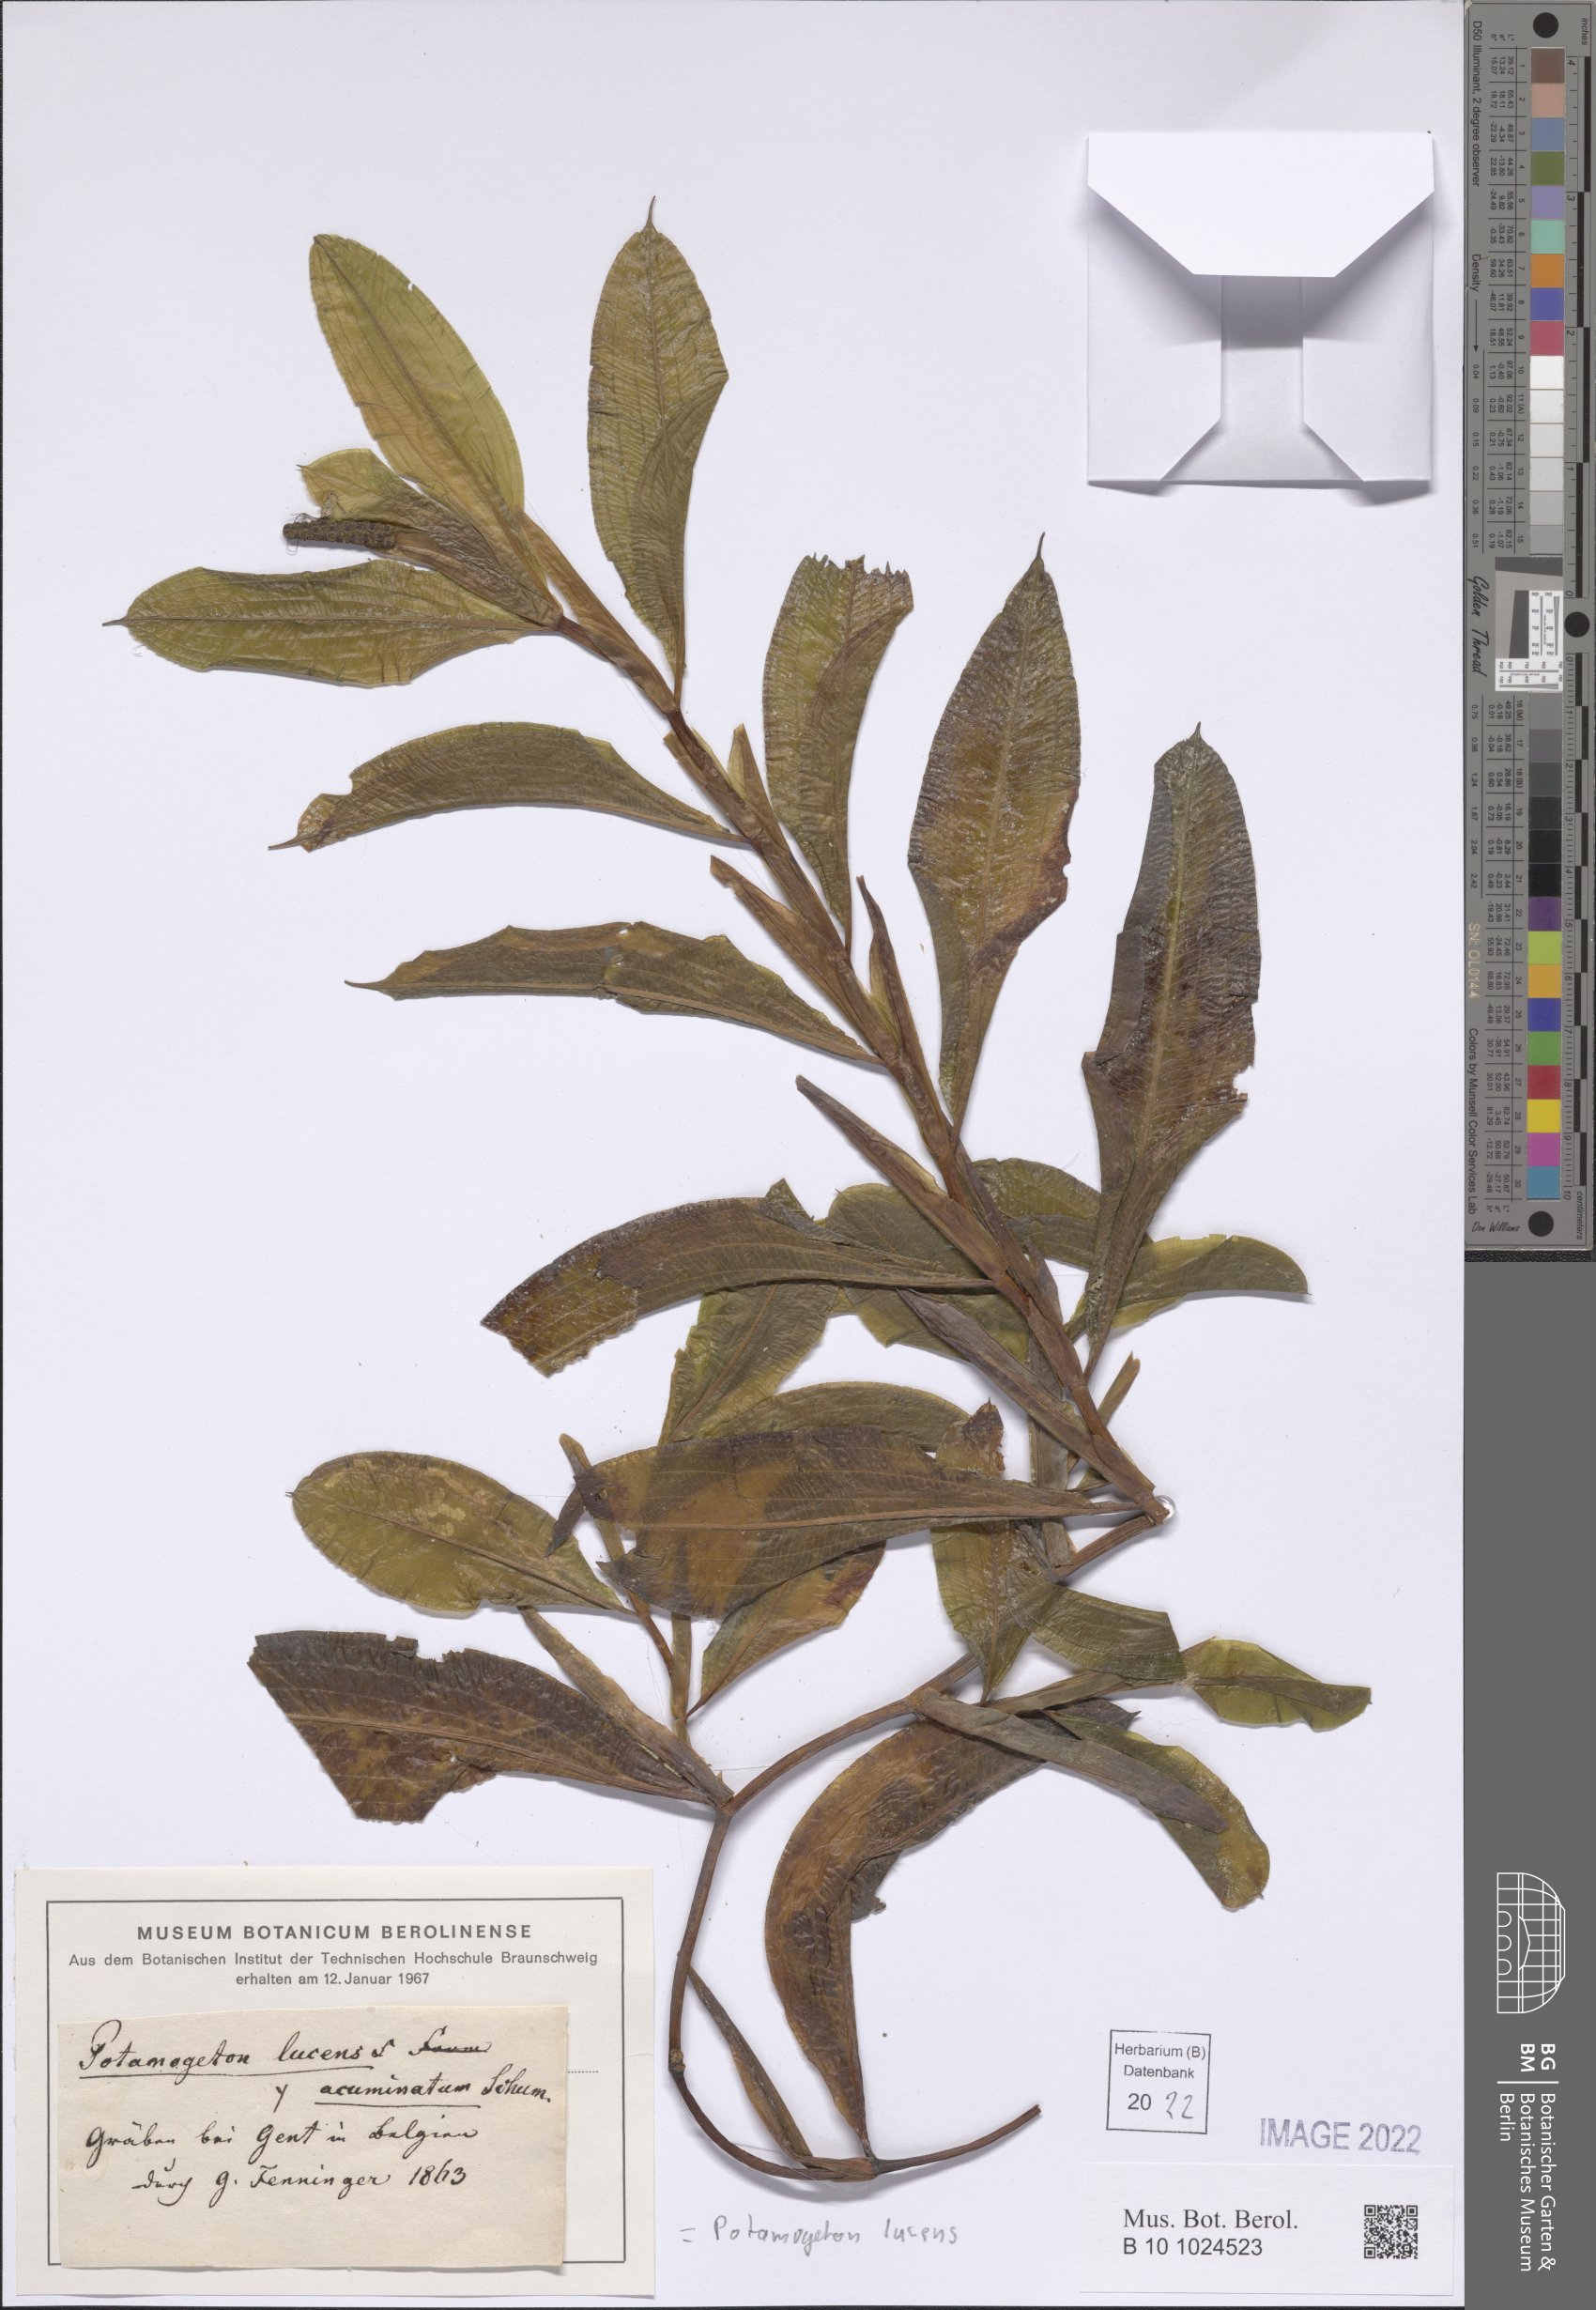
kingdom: Plantae
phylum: Tracheophyta
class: Liliopsida
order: Alismatales
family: Potamogetonaceae
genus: Potamogeton
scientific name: Potamogeton lucens
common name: Shining pondweed
